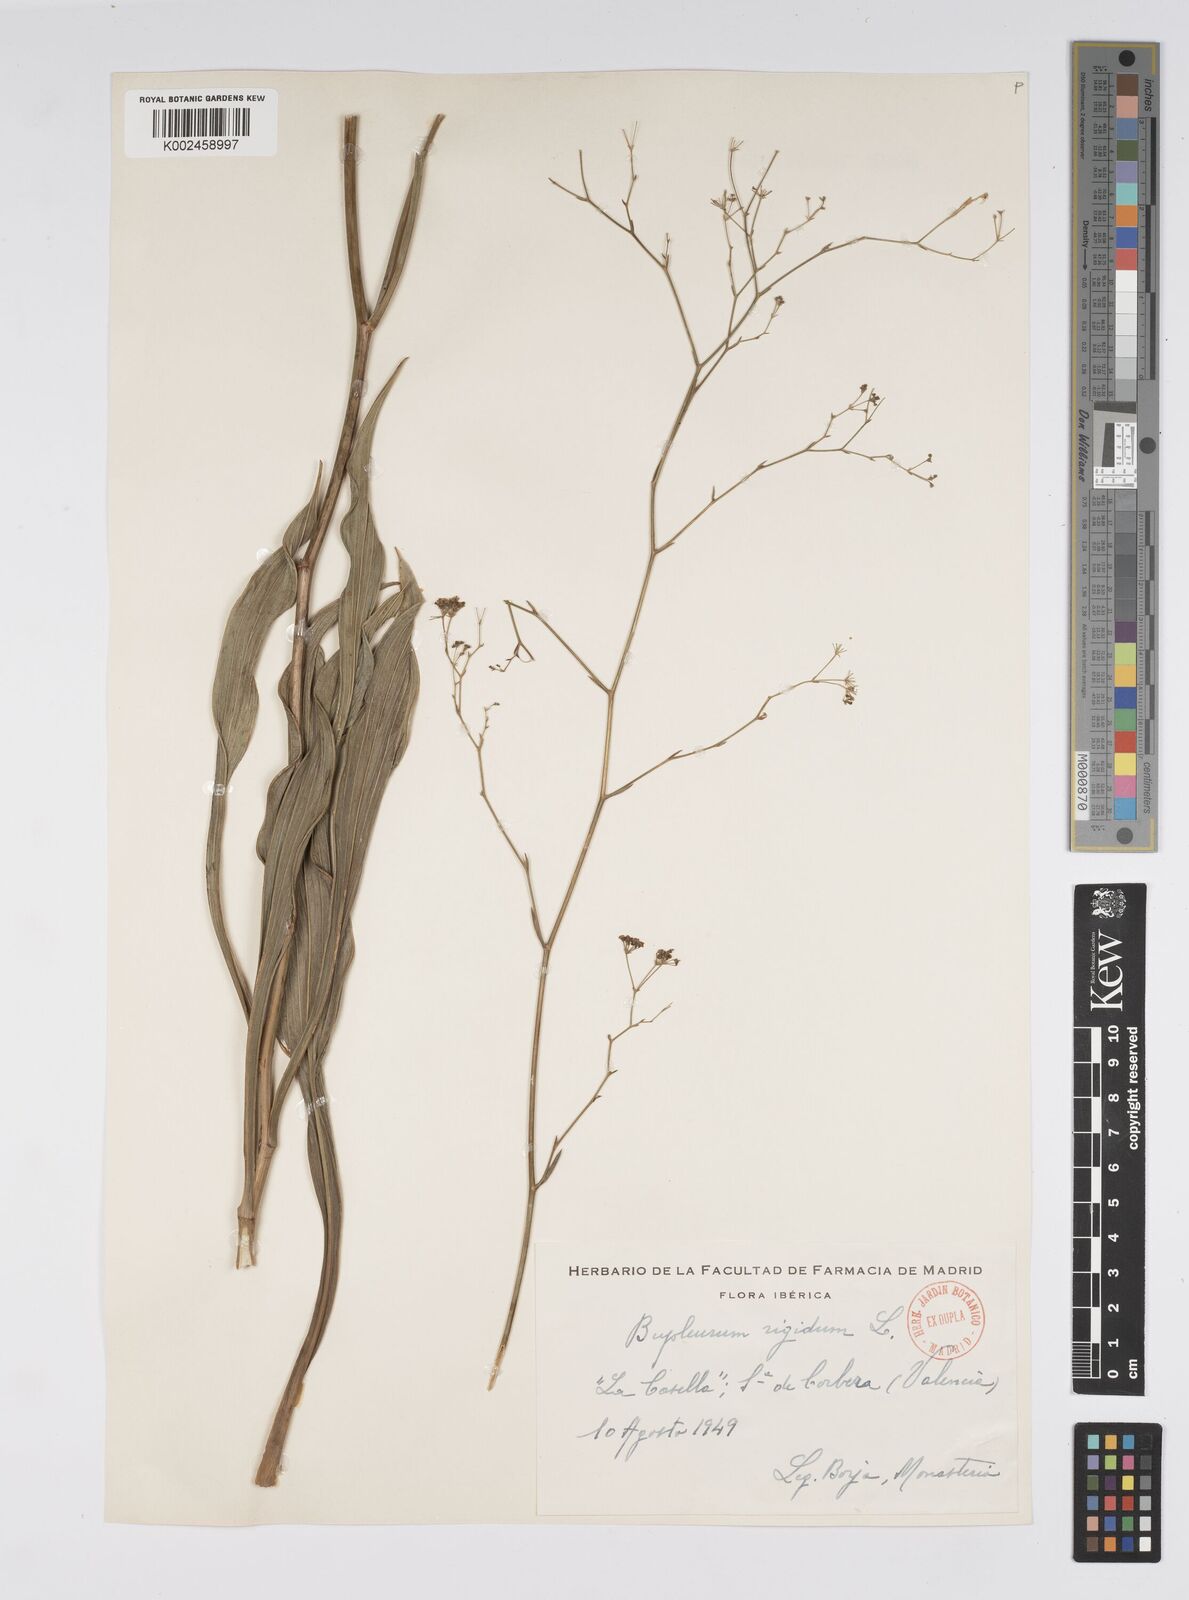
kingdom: Plantae
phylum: Tracheophyta
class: Magnoliopsida
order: Apiales
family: Apiaceae
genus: Bupleurum
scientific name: Bupleurum rigidum
